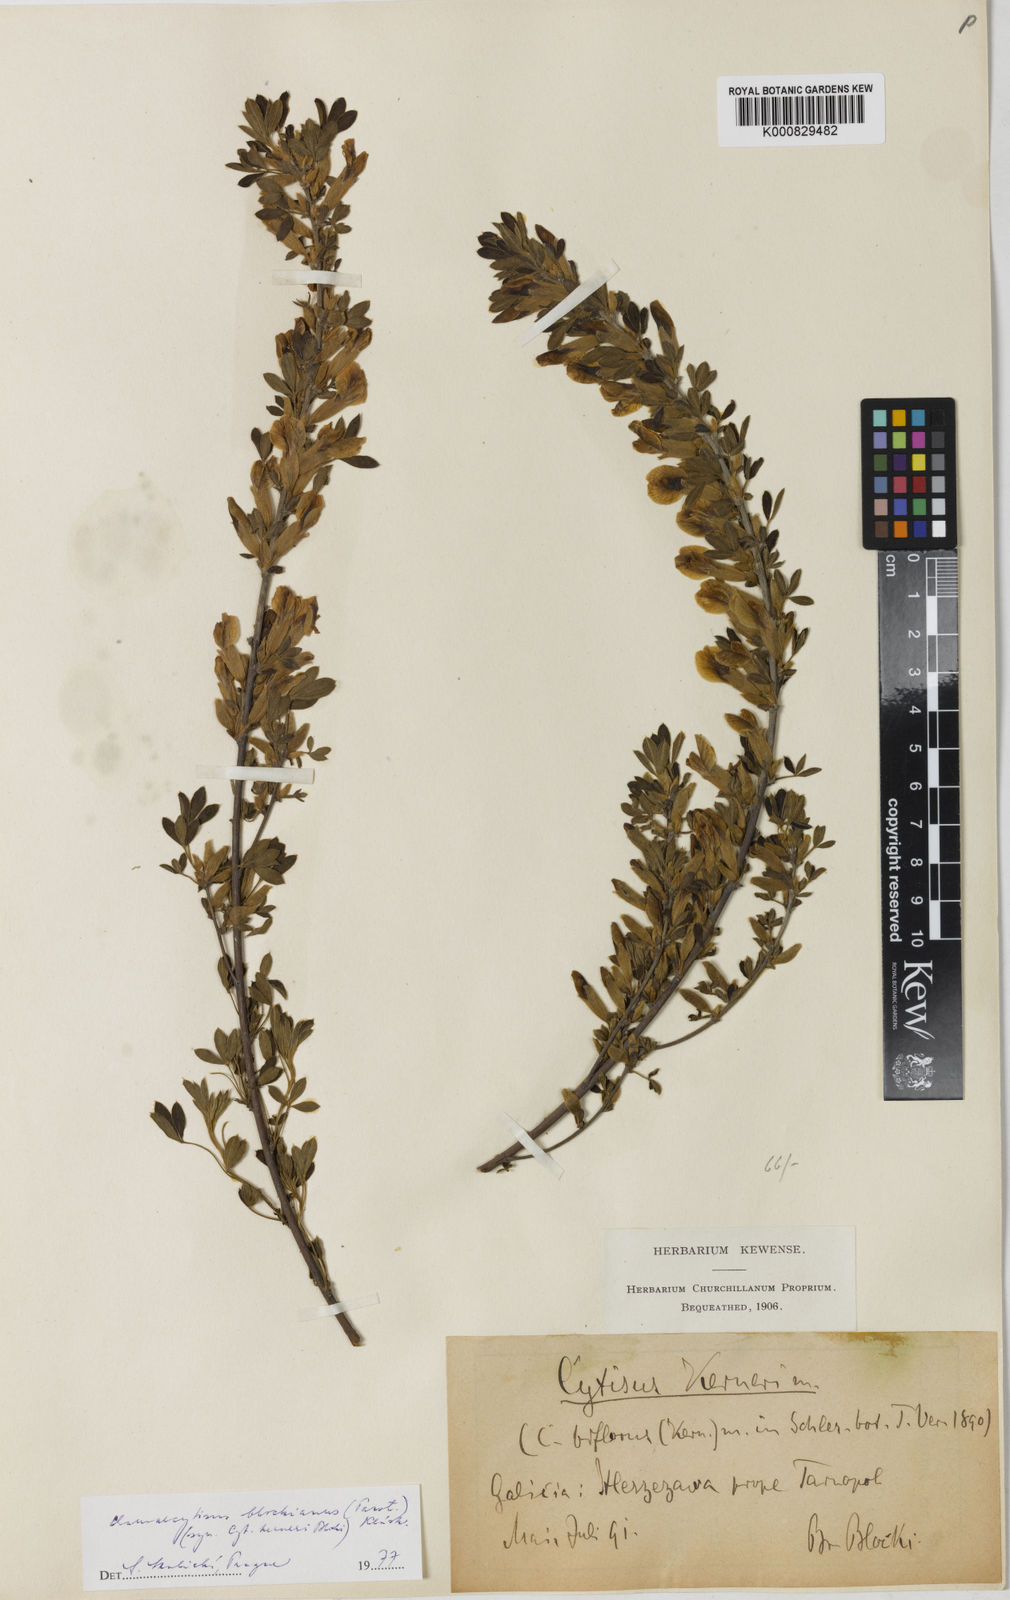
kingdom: Plantae
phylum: Tracheophyta
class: Magnoliopsida
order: Fabales
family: Fabaceae
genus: Cytisus
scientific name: Cytisus kerneri
